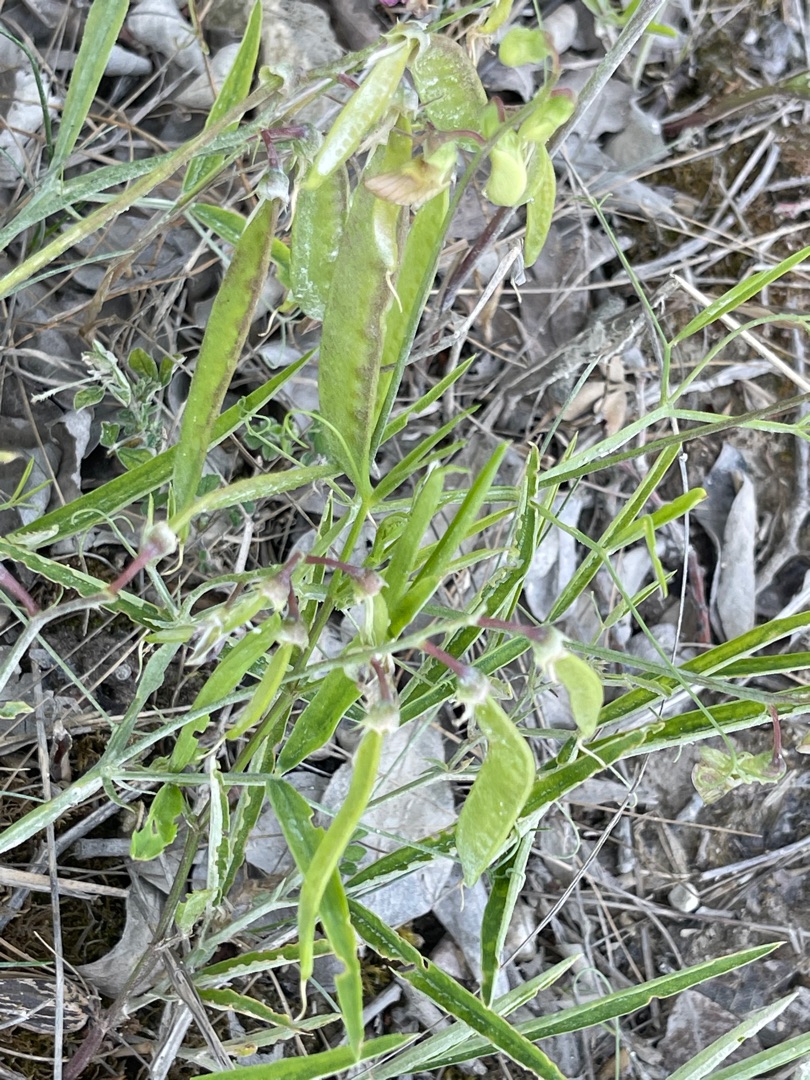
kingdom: Plantae
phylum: Tracheophyta
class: Magnoliopsida
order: Fabales
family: Fabaceae
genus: Lathyrus
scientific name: Lathyrus sylvestris
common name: Skov-fladbælg
